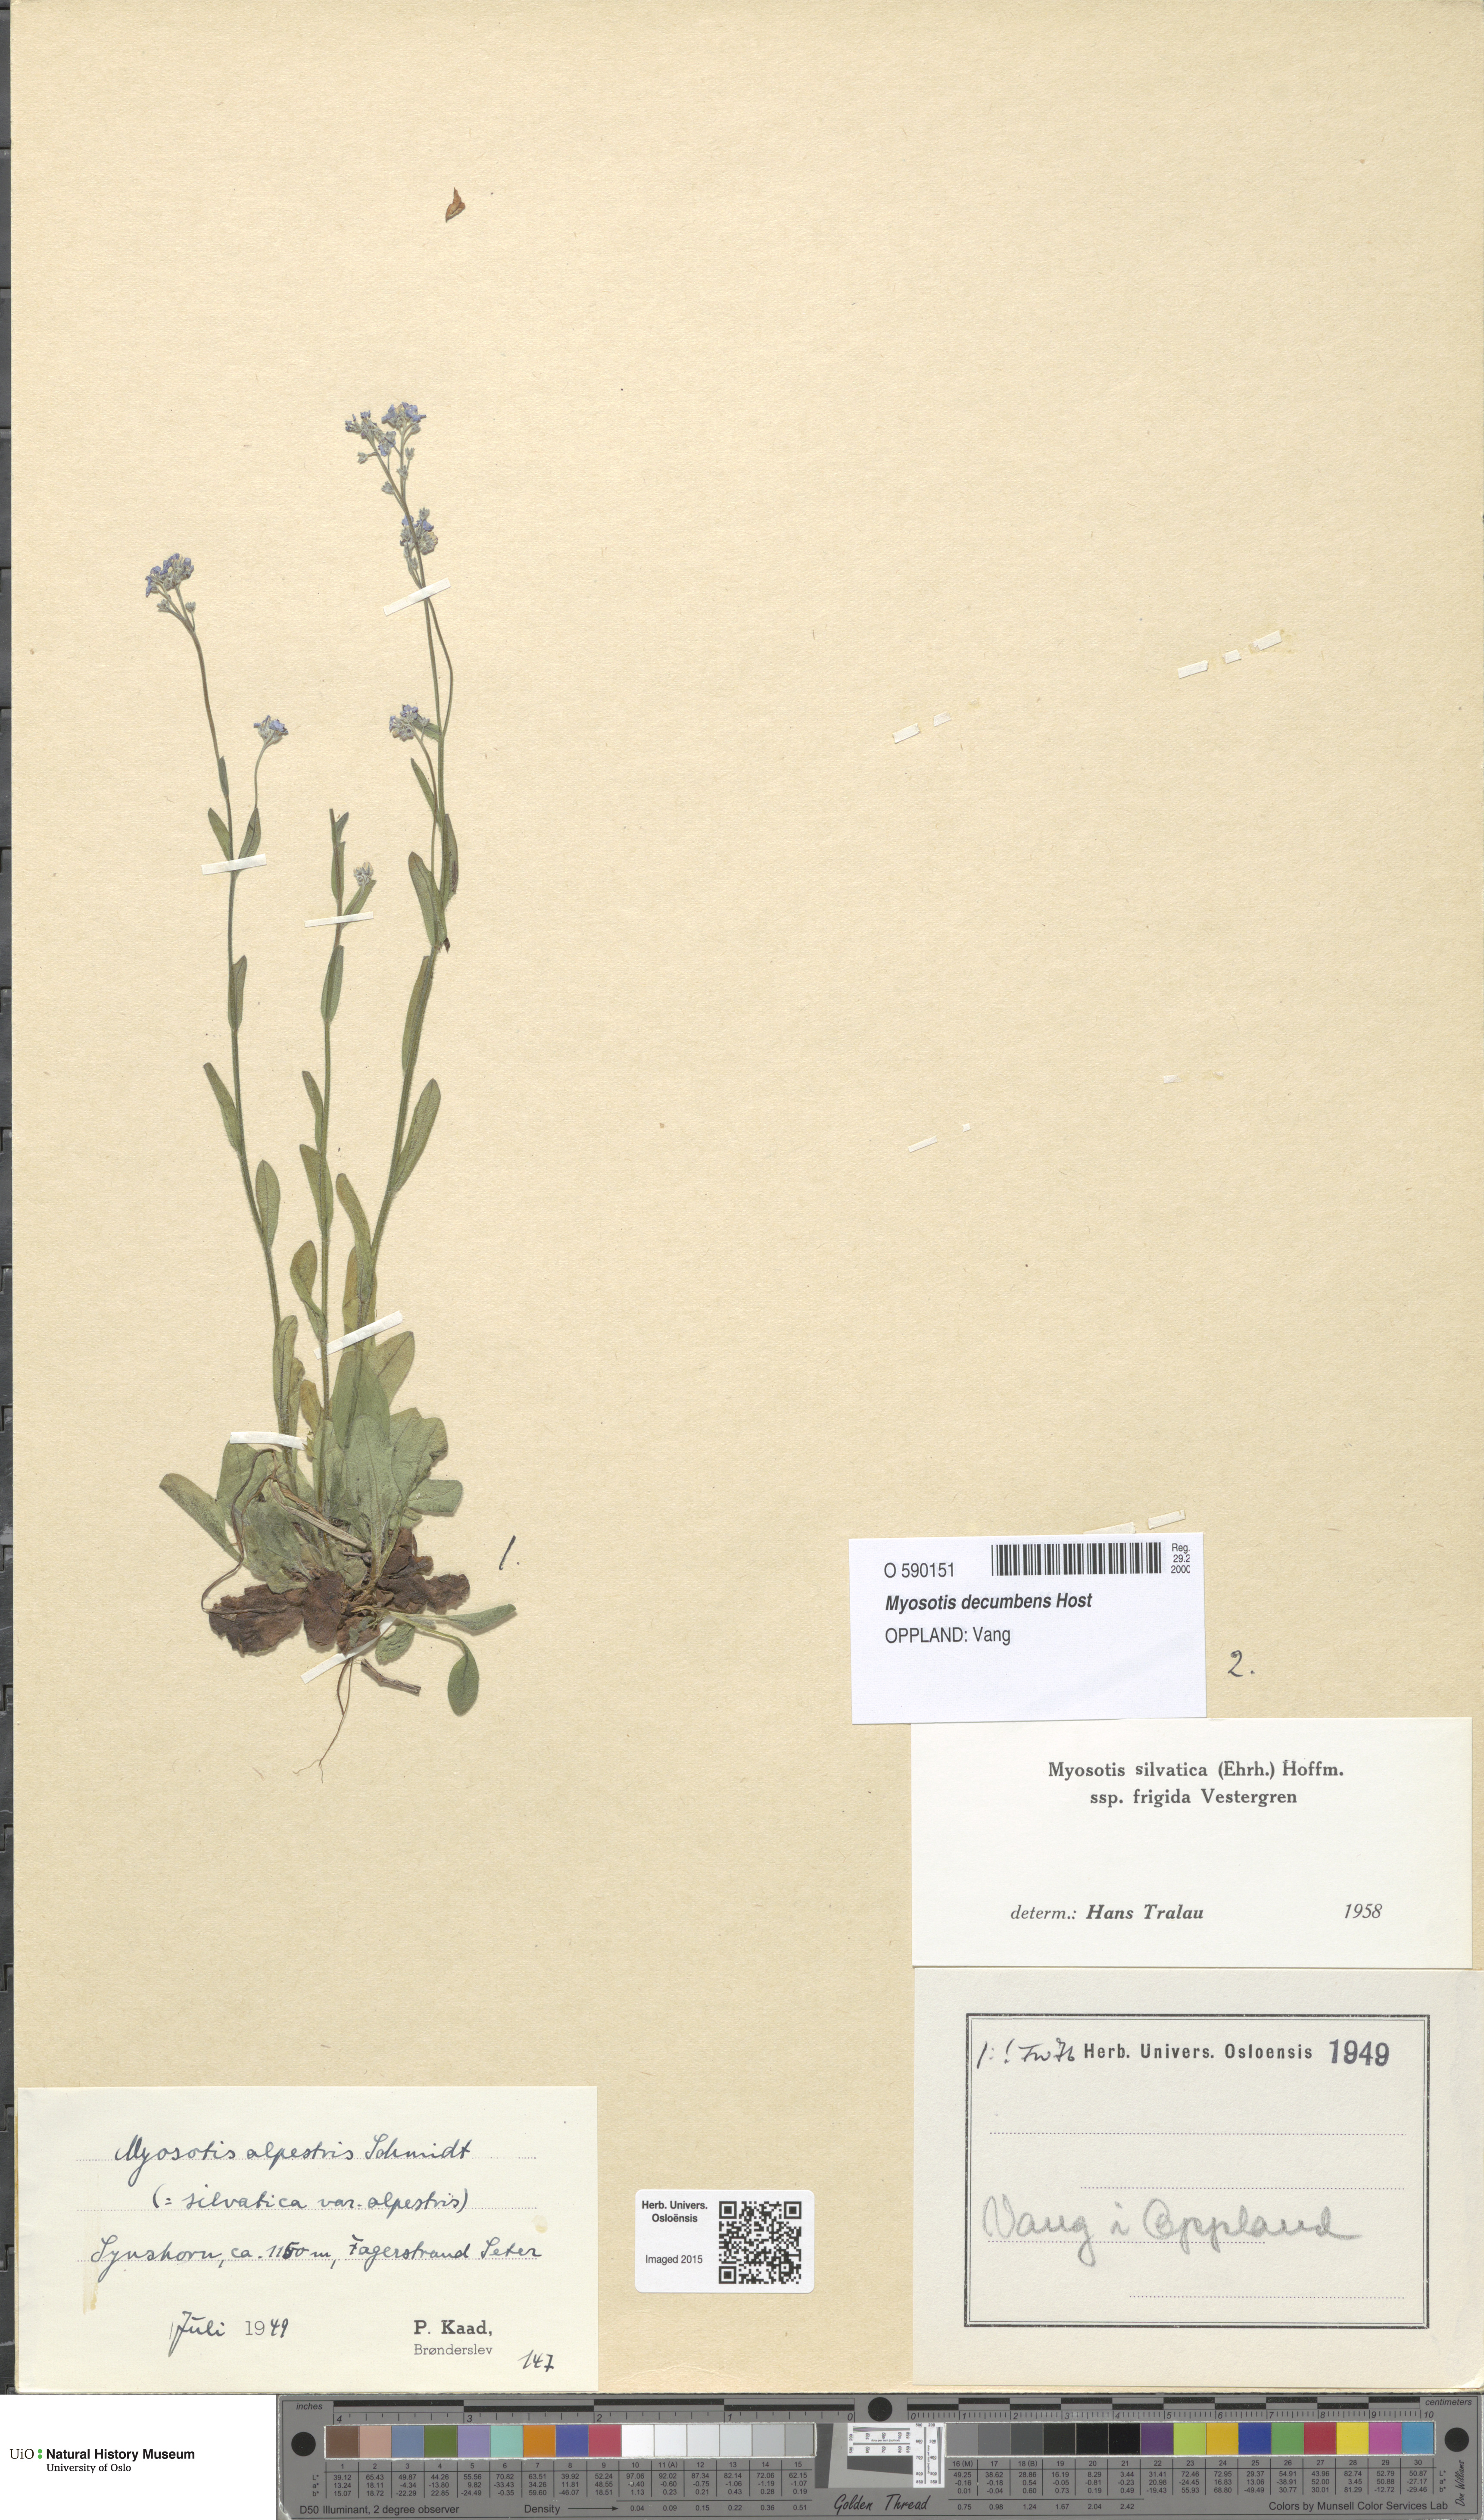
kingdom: Plantae
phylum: Tracheophyta
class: Magnoliopsida
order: Boraginales
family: Boraginaceae
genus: Myosotis
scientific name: Myosotis decumbens
